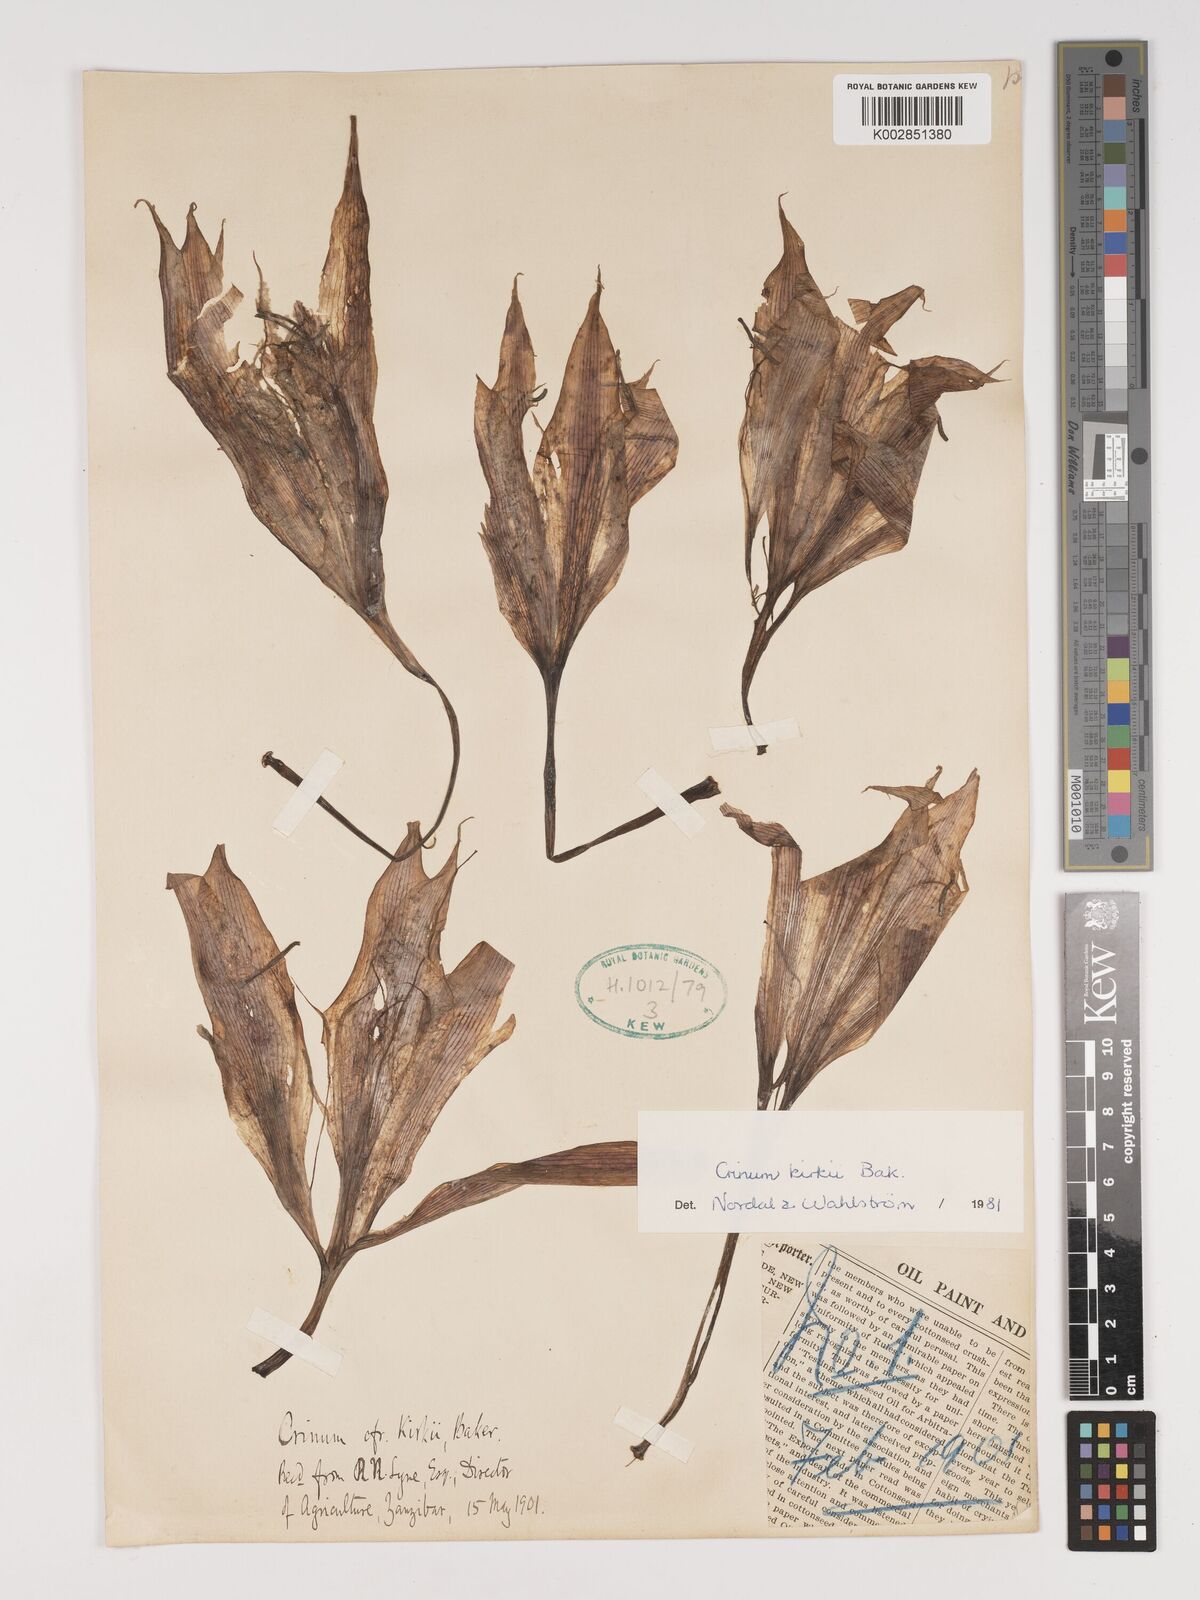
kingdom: Plantae
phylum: Tracheophyta
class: Liliopsida
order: Asparagales
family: Amaryllidaceae
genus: Crinum
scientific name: Crinum kirkii
